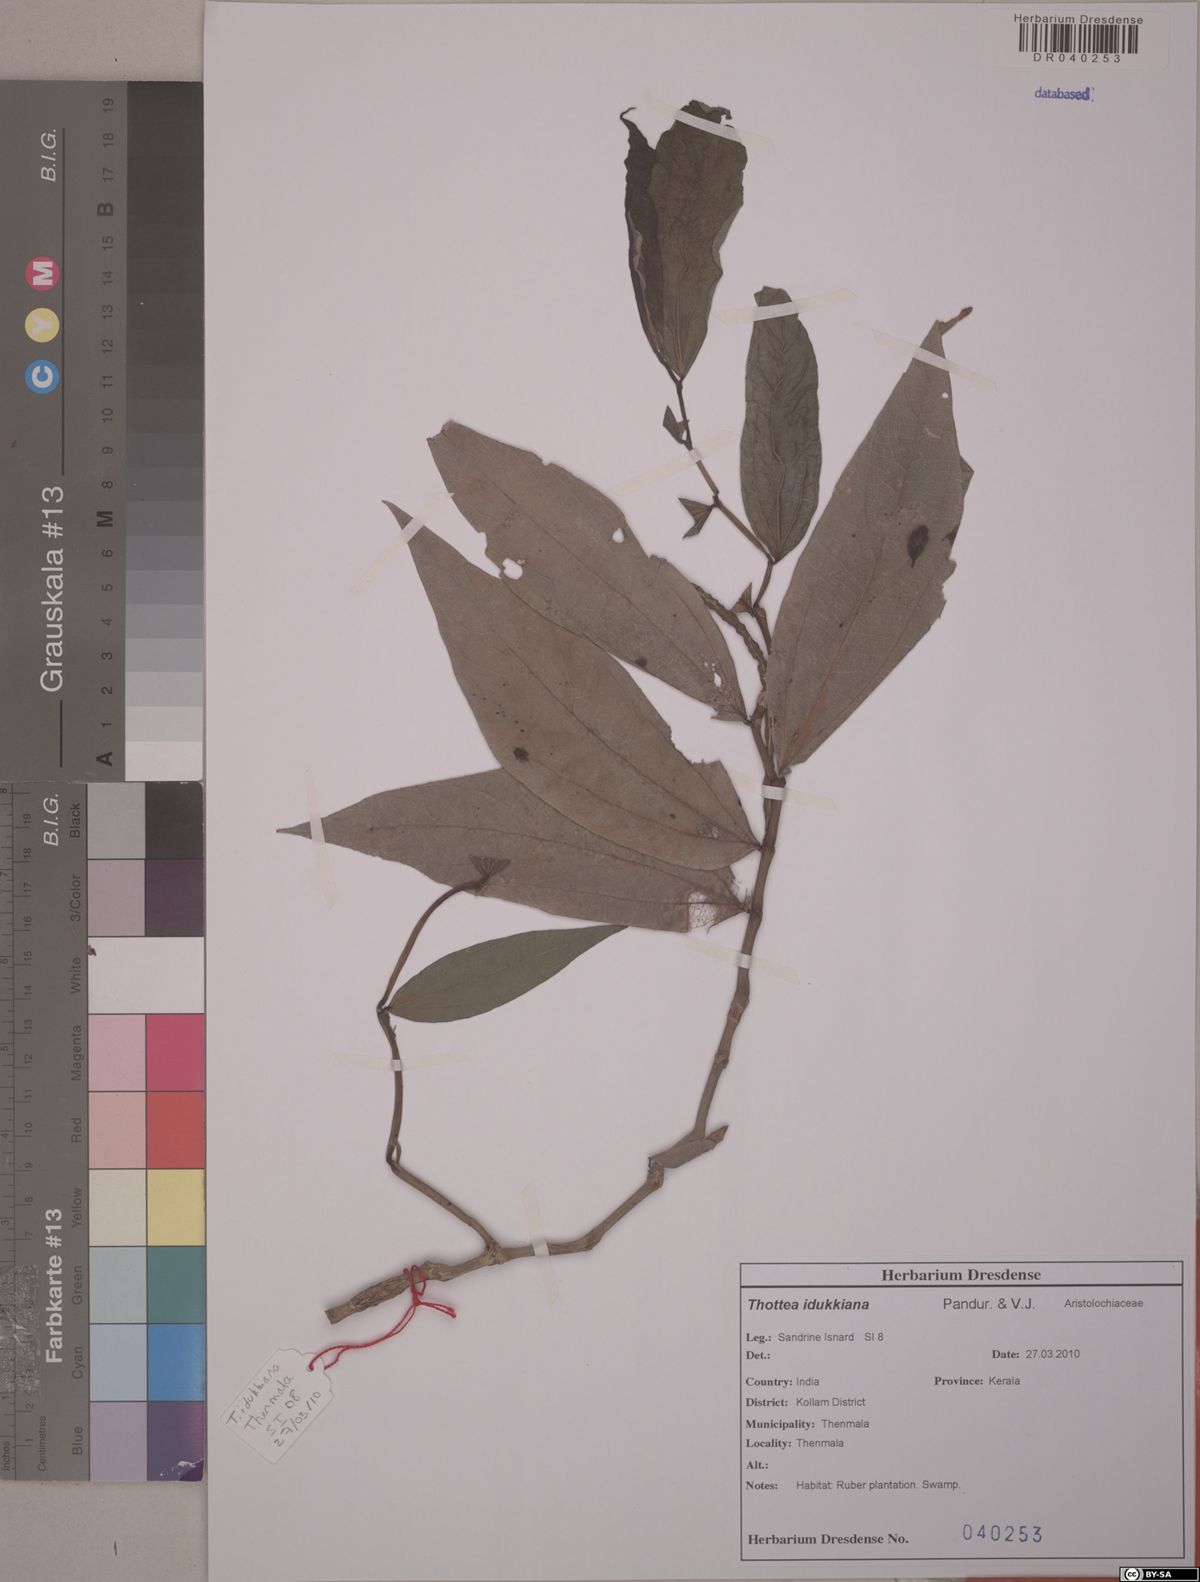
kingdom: Plantae
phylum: Tracheophyta
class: Magnoliopsida
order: Piperales
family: Aristolochiaceae
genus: Thottea
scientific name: Thottea duchartrei
